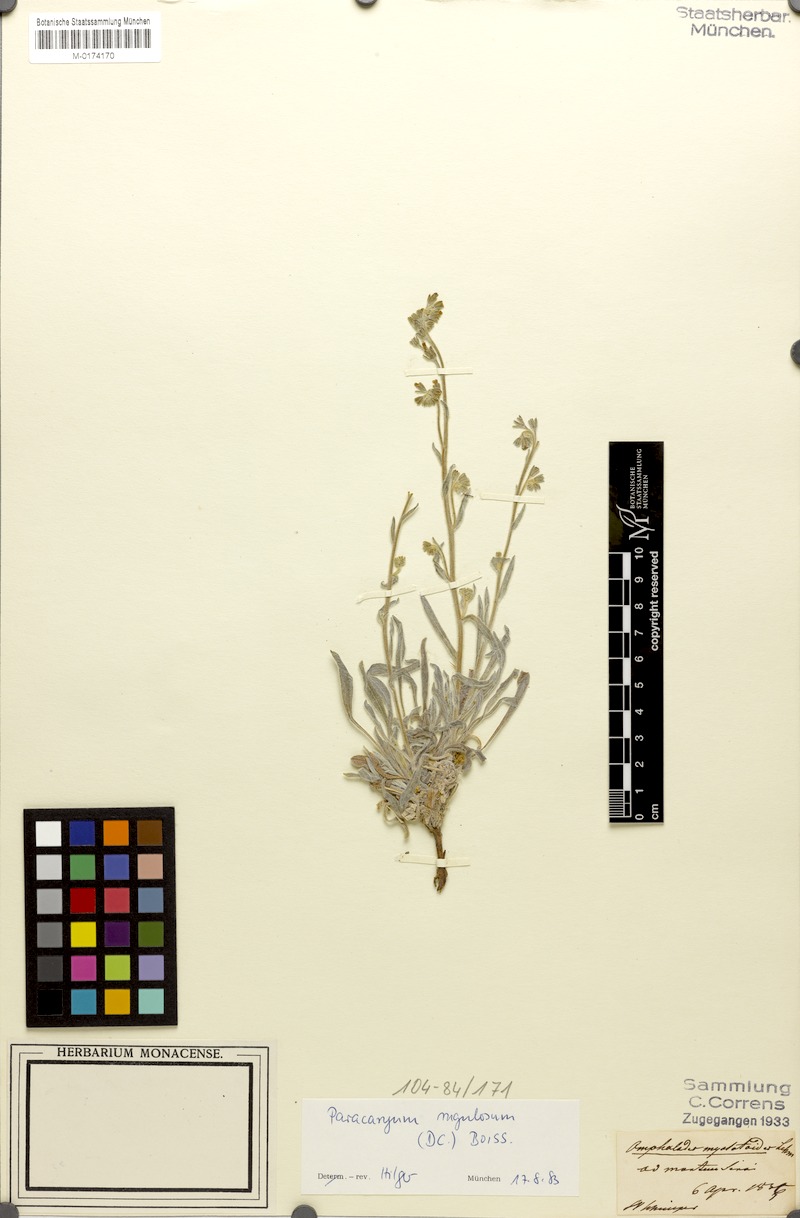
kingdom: Plantae
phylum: Tracheophyta
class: Magnoliopsida
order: Boraginales
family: Boraginaceae
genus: Paracaryum
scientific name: Paracaryum rugulosum
